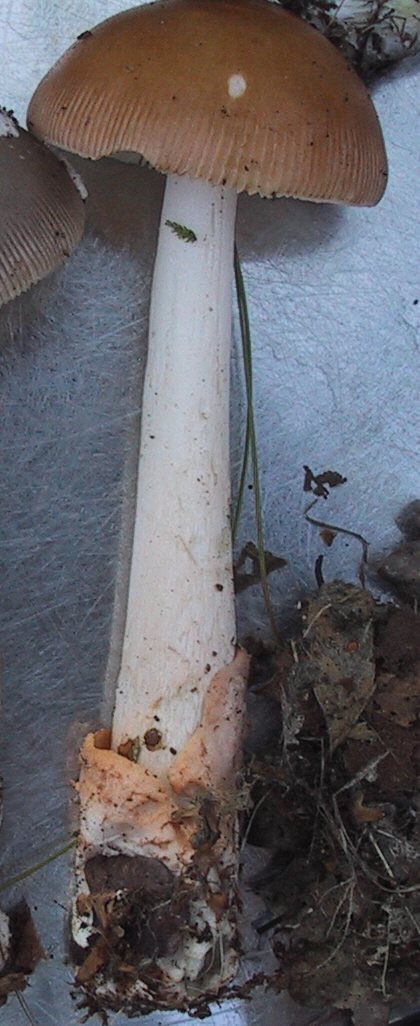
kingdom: Fungi
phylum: Basidiomycota
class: Agaricomycetes
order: Agaricales
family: Amanitaceae
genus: Amanita
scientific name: Amanita fulva
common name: brun kam-fluesvamp
